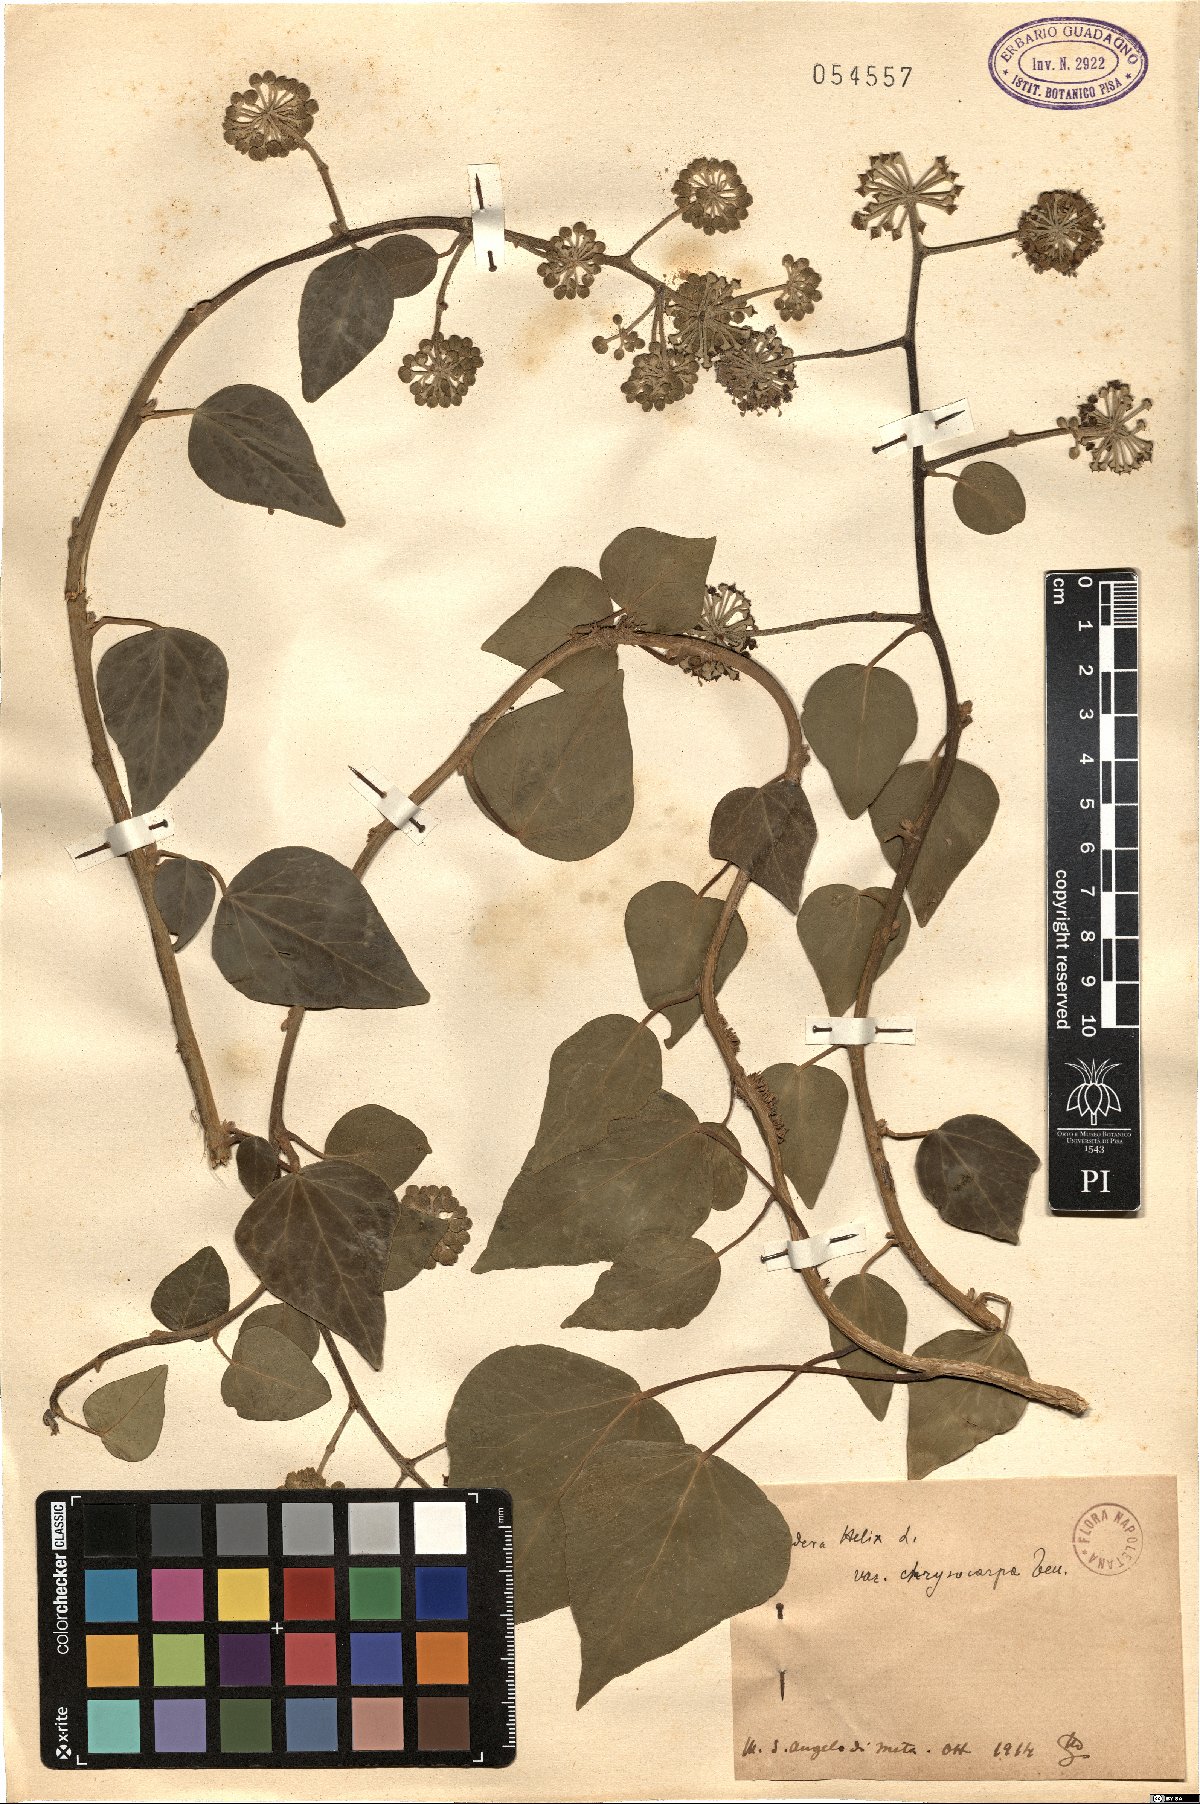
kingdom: Plantae
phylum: Tracheophyta
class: Magnoliopsida
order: Apiales
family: Araliaceae
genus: Hedera
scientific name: Hedera helix
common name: Ivy
